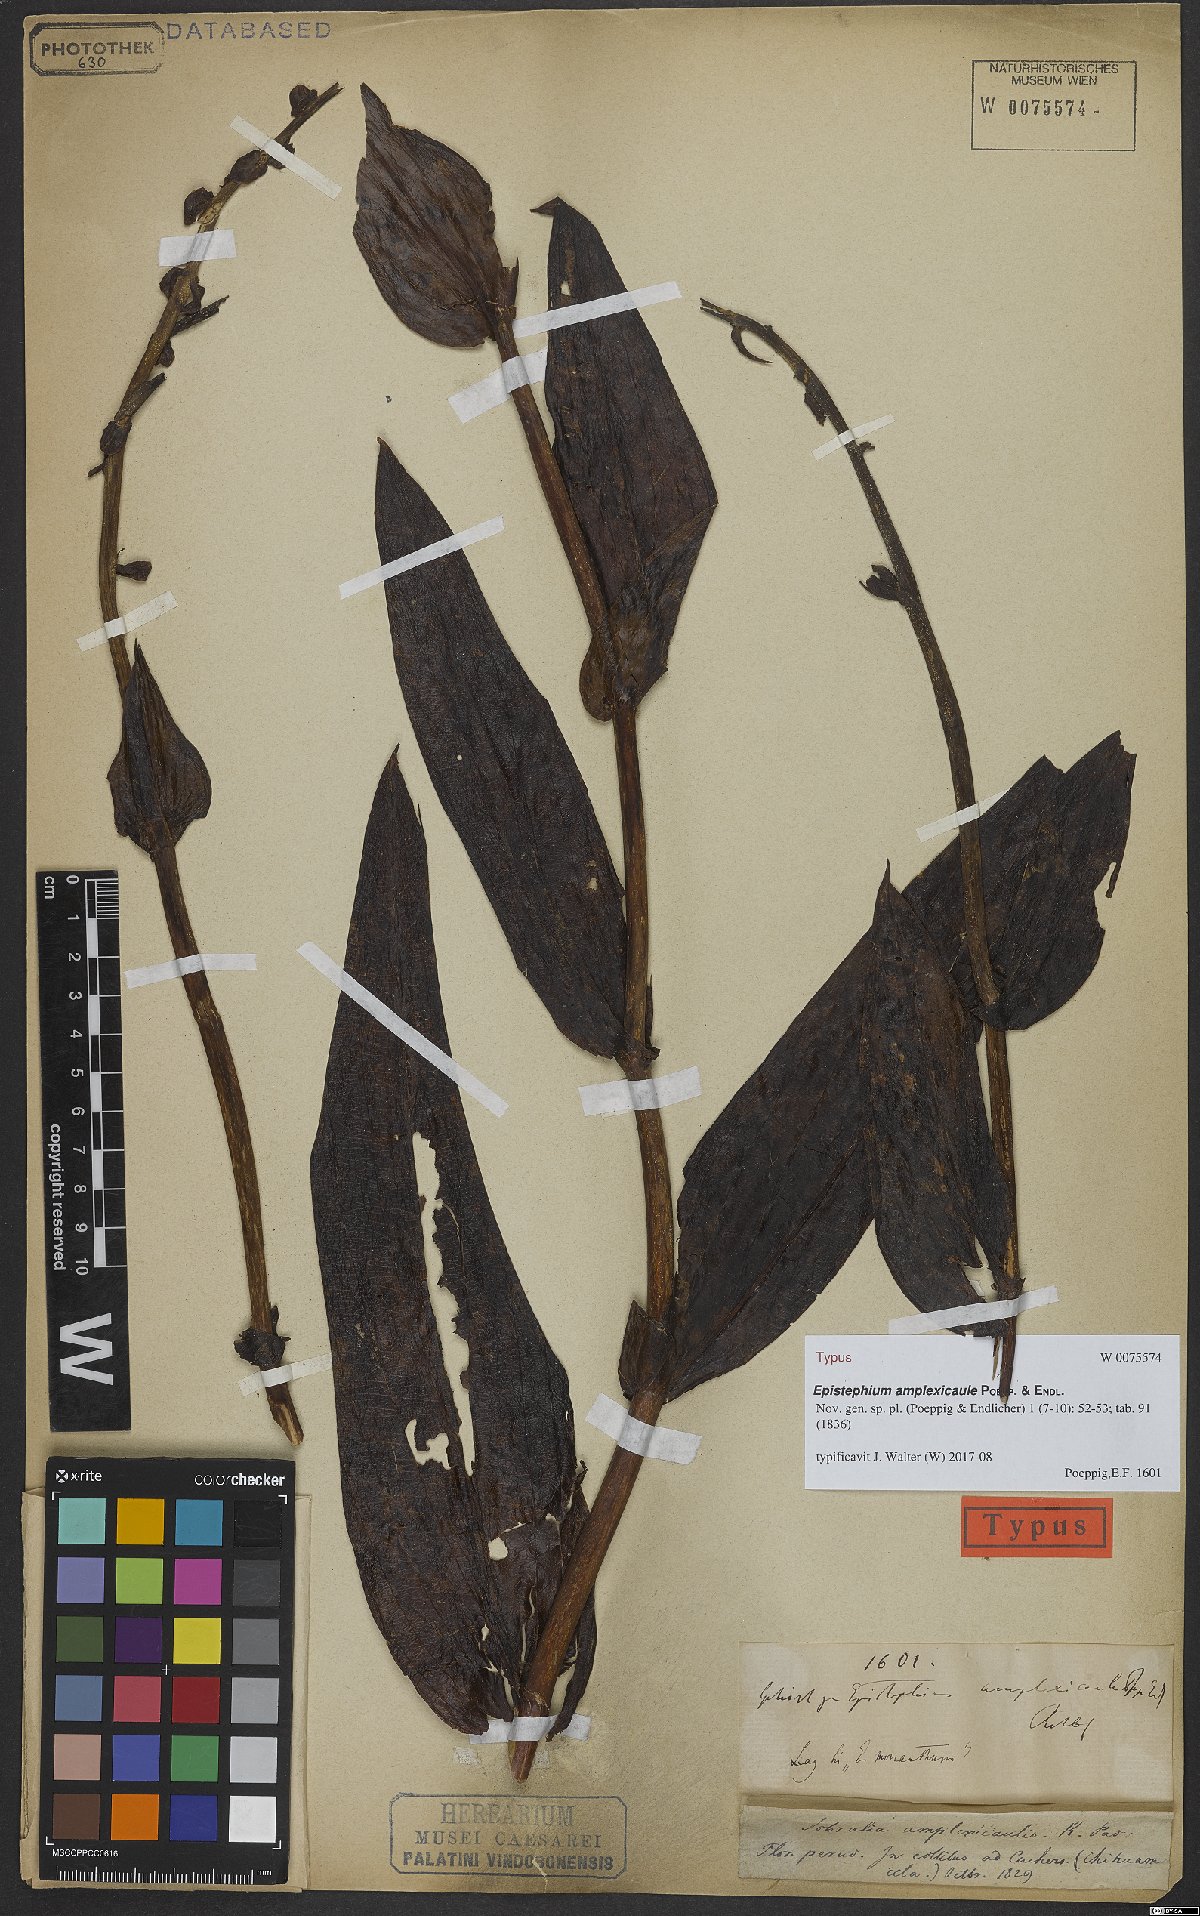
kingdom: Plantae
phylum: Tracheophyta
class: Liliopsida
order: Asparagales
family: Orchidaceae
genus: Epistephium
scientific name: Epistephium amplexicaule
